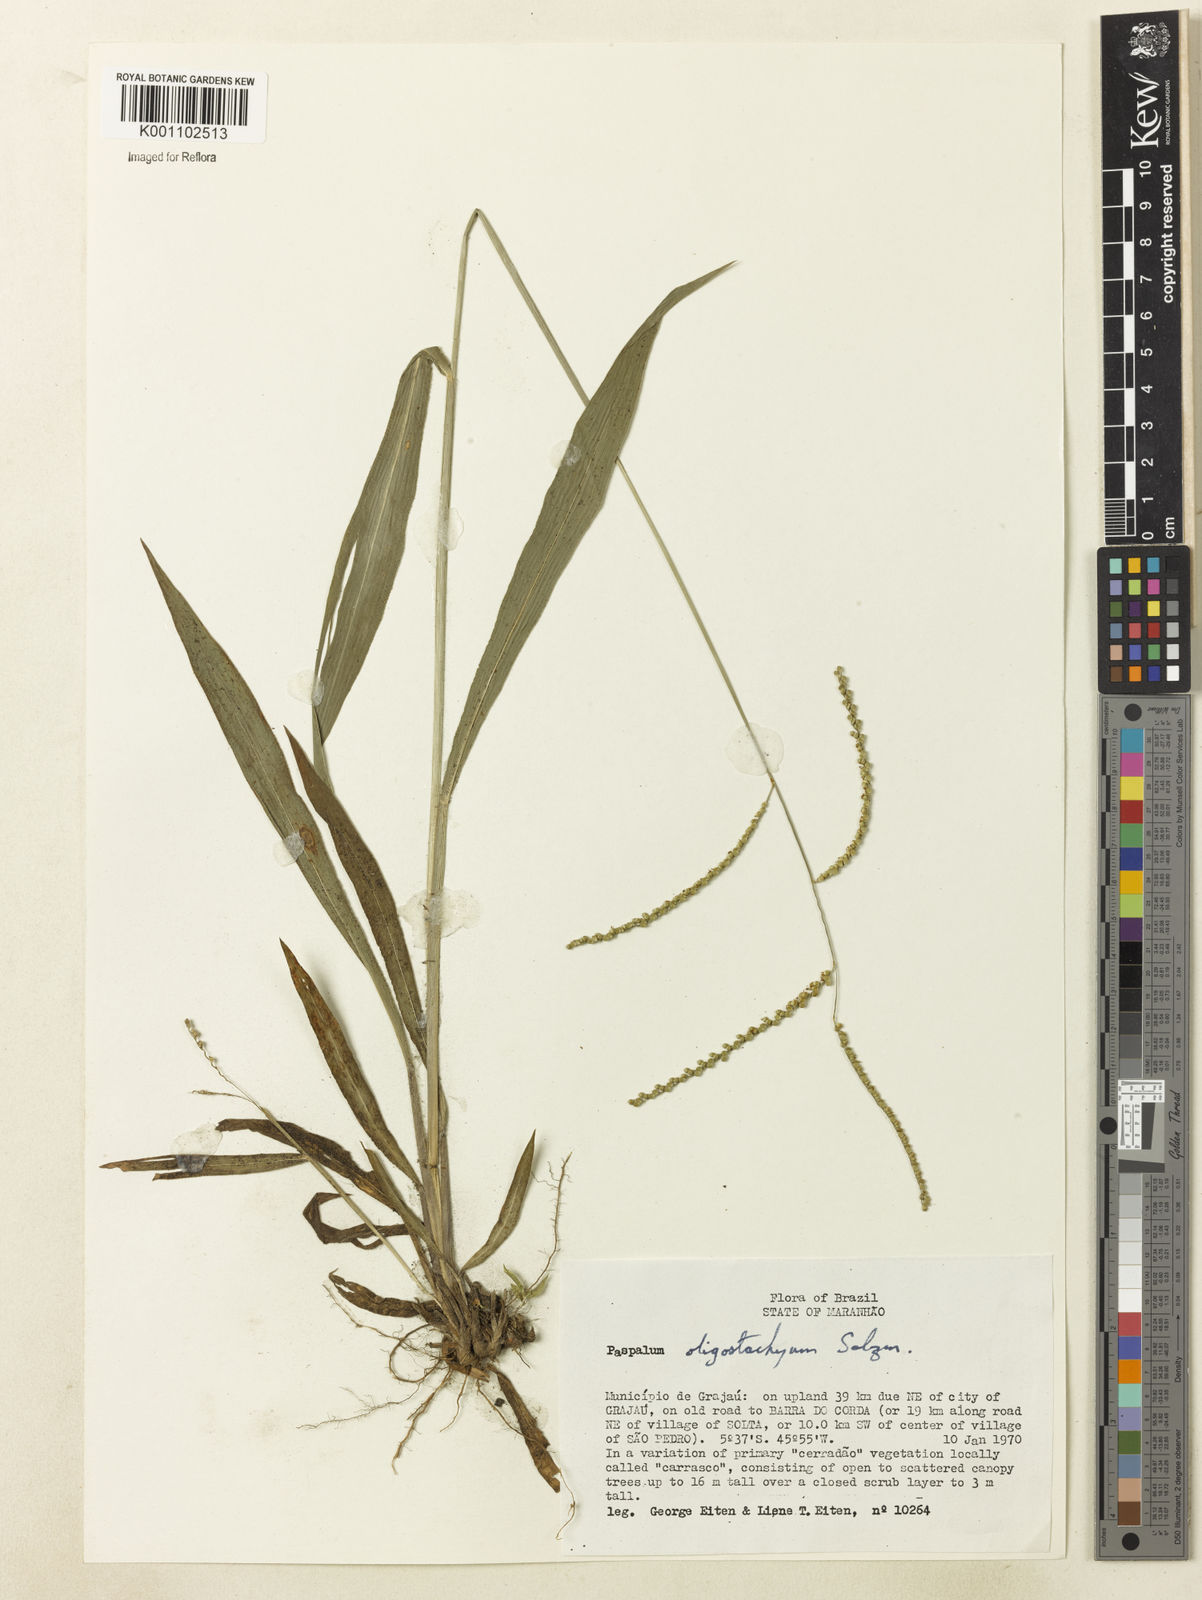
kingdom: Plantae
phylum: Tracheophyta
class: Liliopsida
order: Poales
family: Poaceae
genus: Paspalum
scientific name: Paspalum oligostachyum
